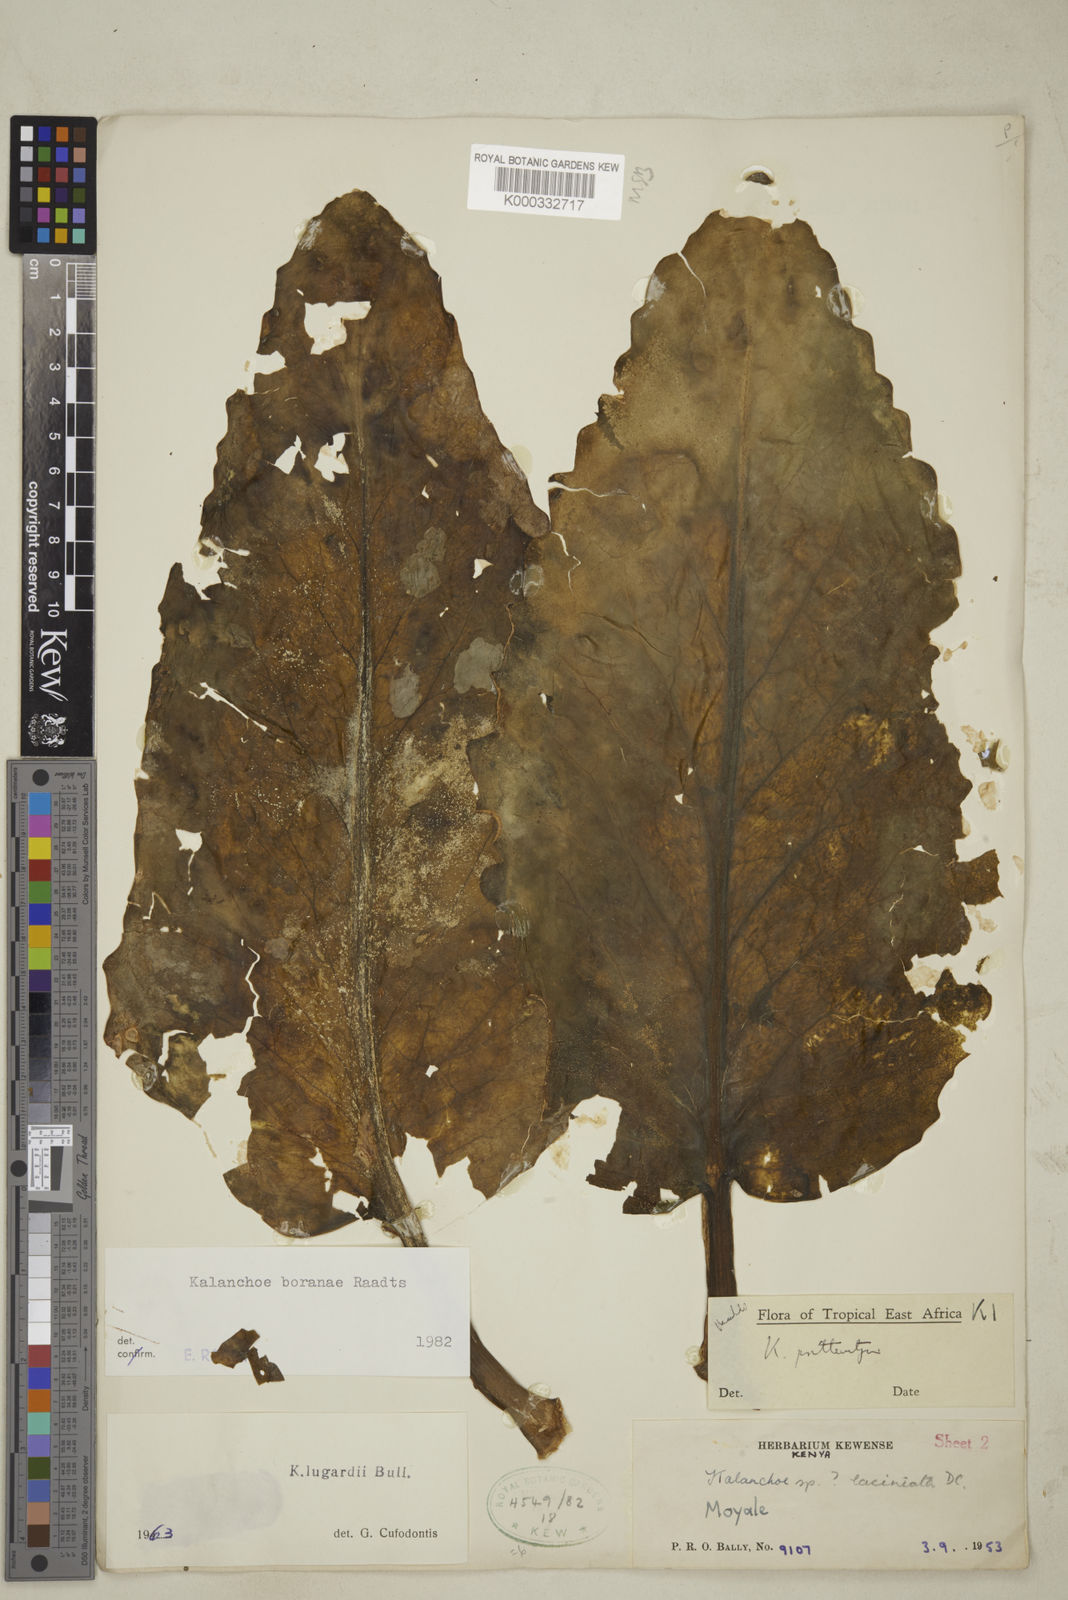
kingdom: Plantae
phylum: Tracheophyta
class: Magnoliopsida
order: Saxifragales
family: Crassulaceae
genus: Kalanchoe
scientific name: Kalanchoe boranae
